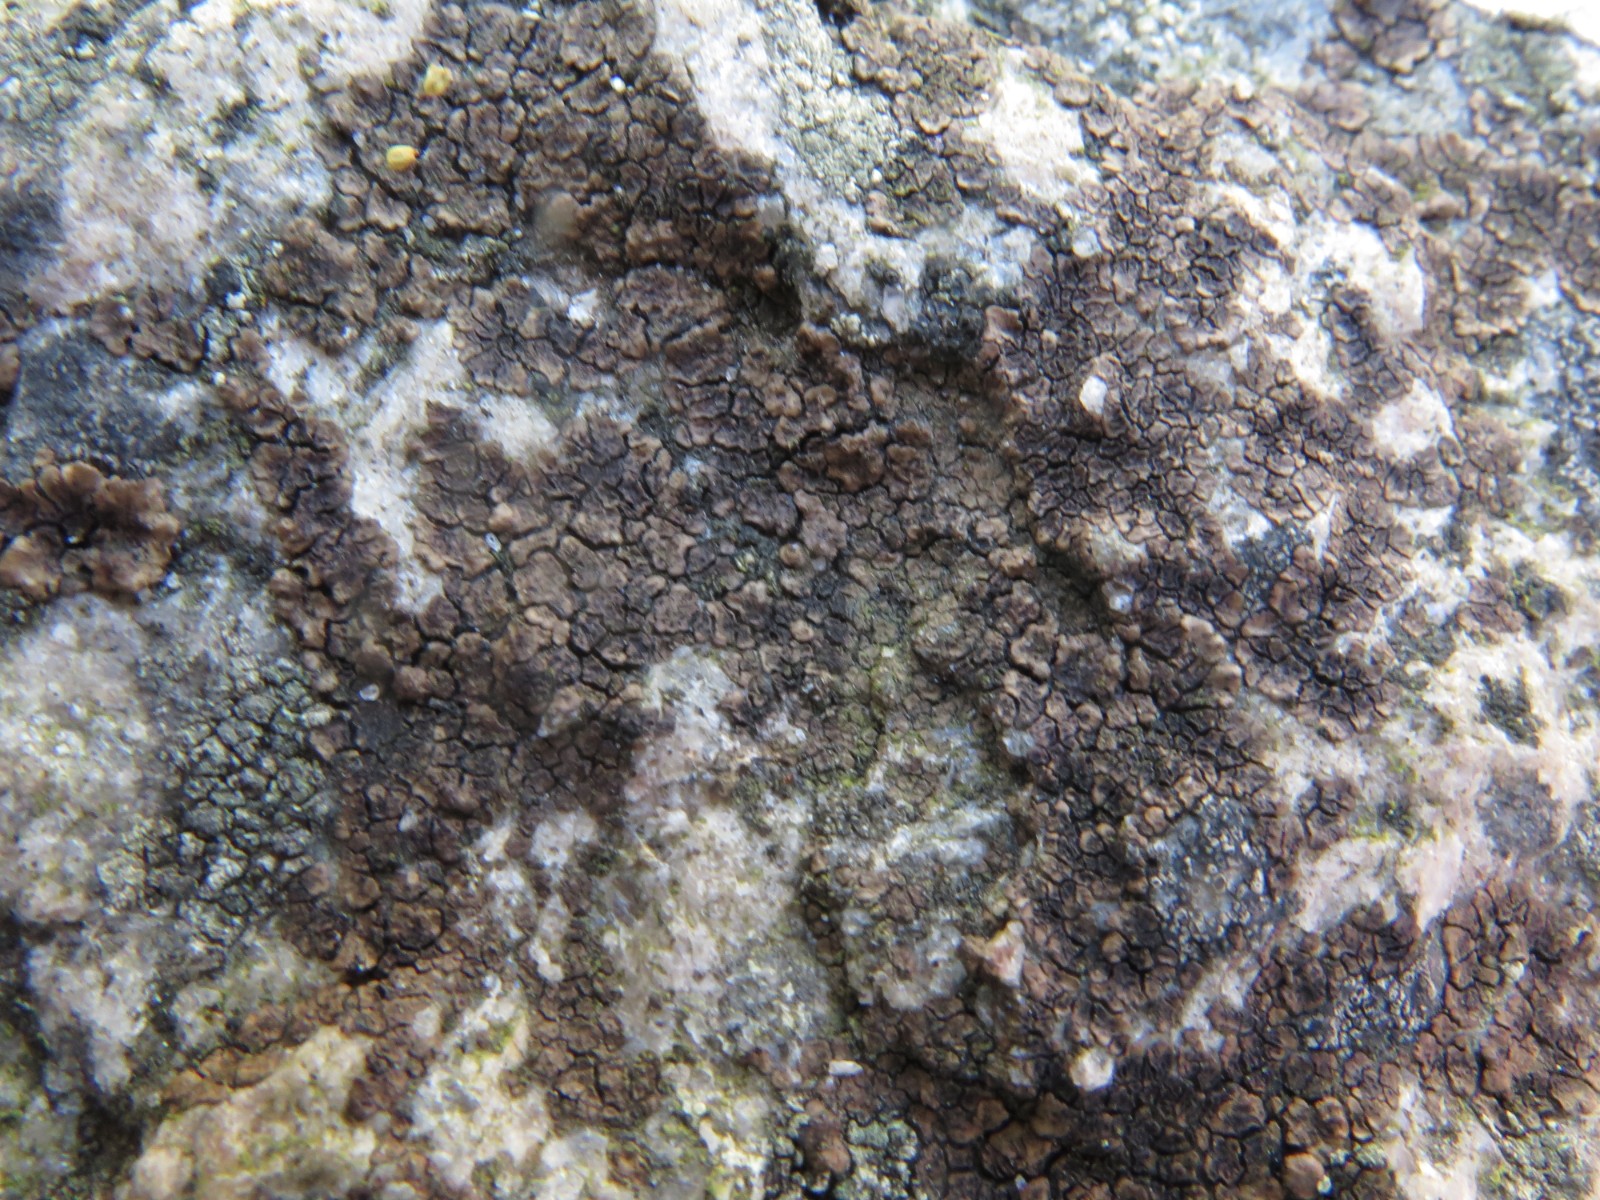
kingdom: Fungi
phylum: Ascomycota
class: Lecanoromycetes
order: Acarosporales
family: Acarosporaceae
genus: Acarospora
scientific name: Acarospora fuscata
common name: brun småsporelav
